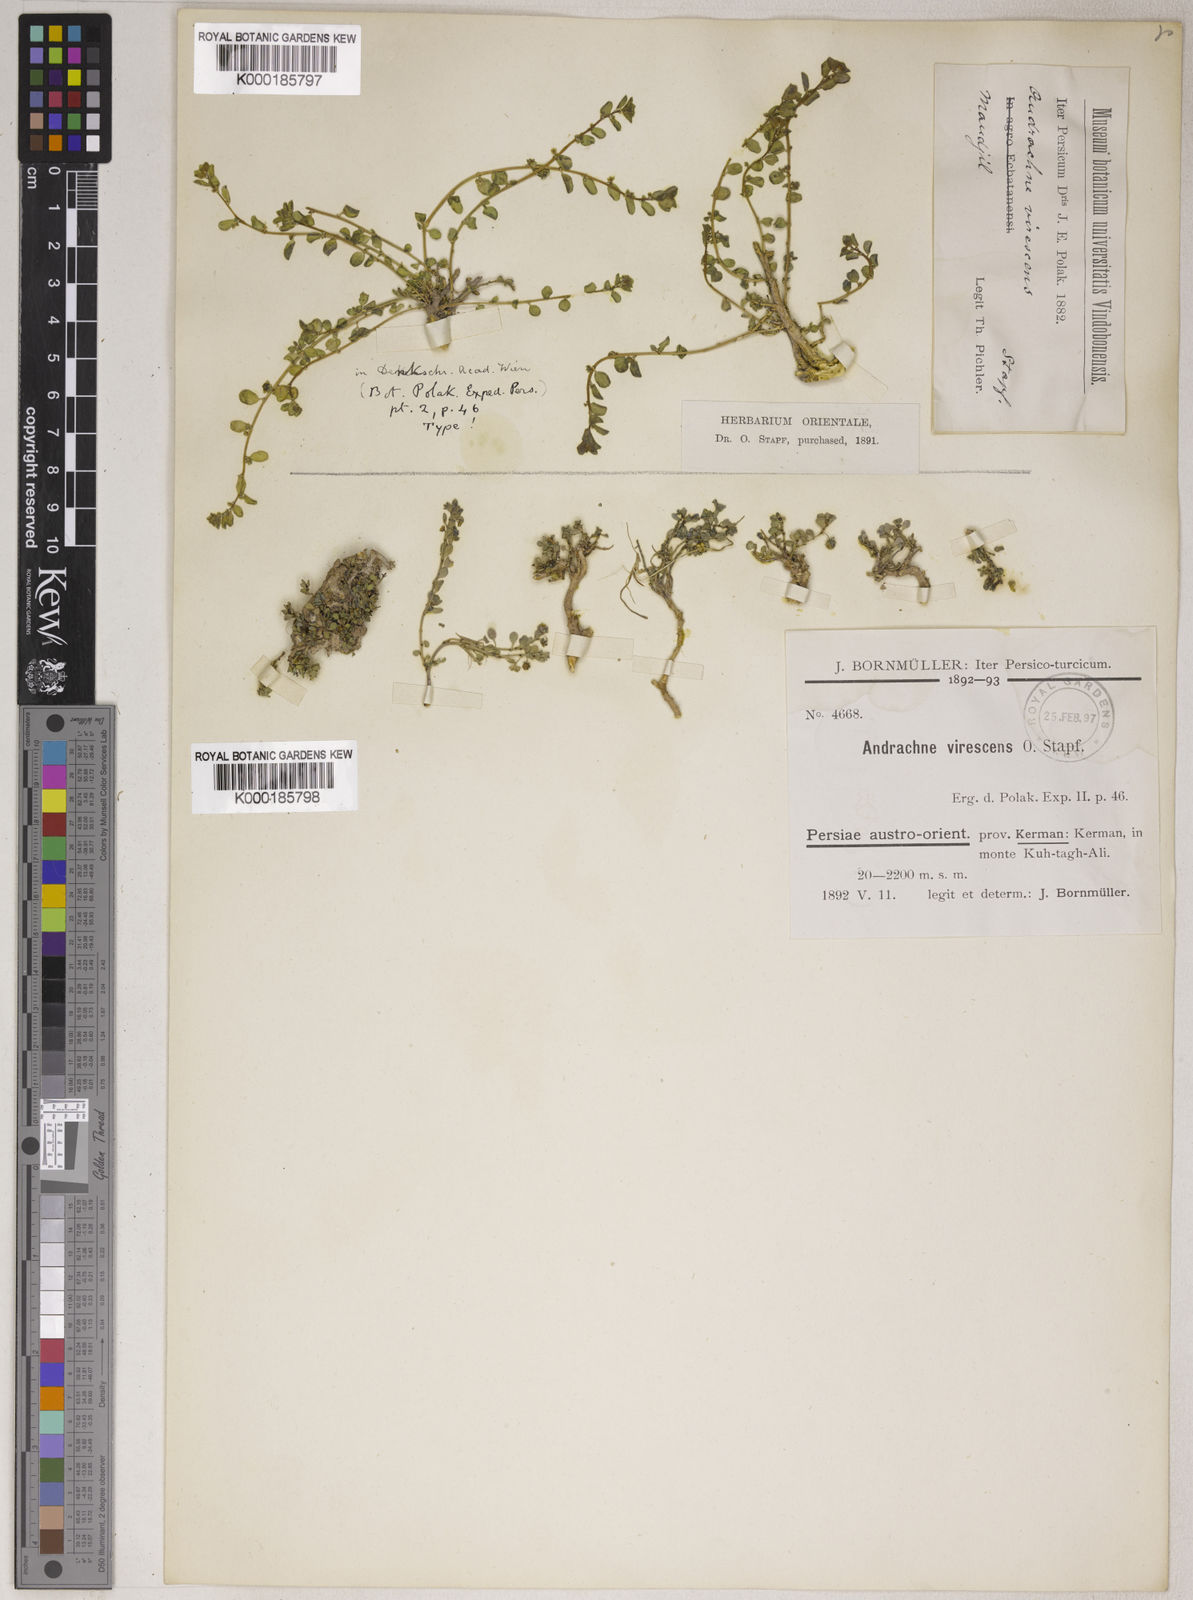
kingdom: Plantae
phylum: Tracheophyta
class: Magnoliopsida
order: Malpighiales
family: Phyllanthaceae
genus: Andrachne
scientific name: Andrachne telephioides
